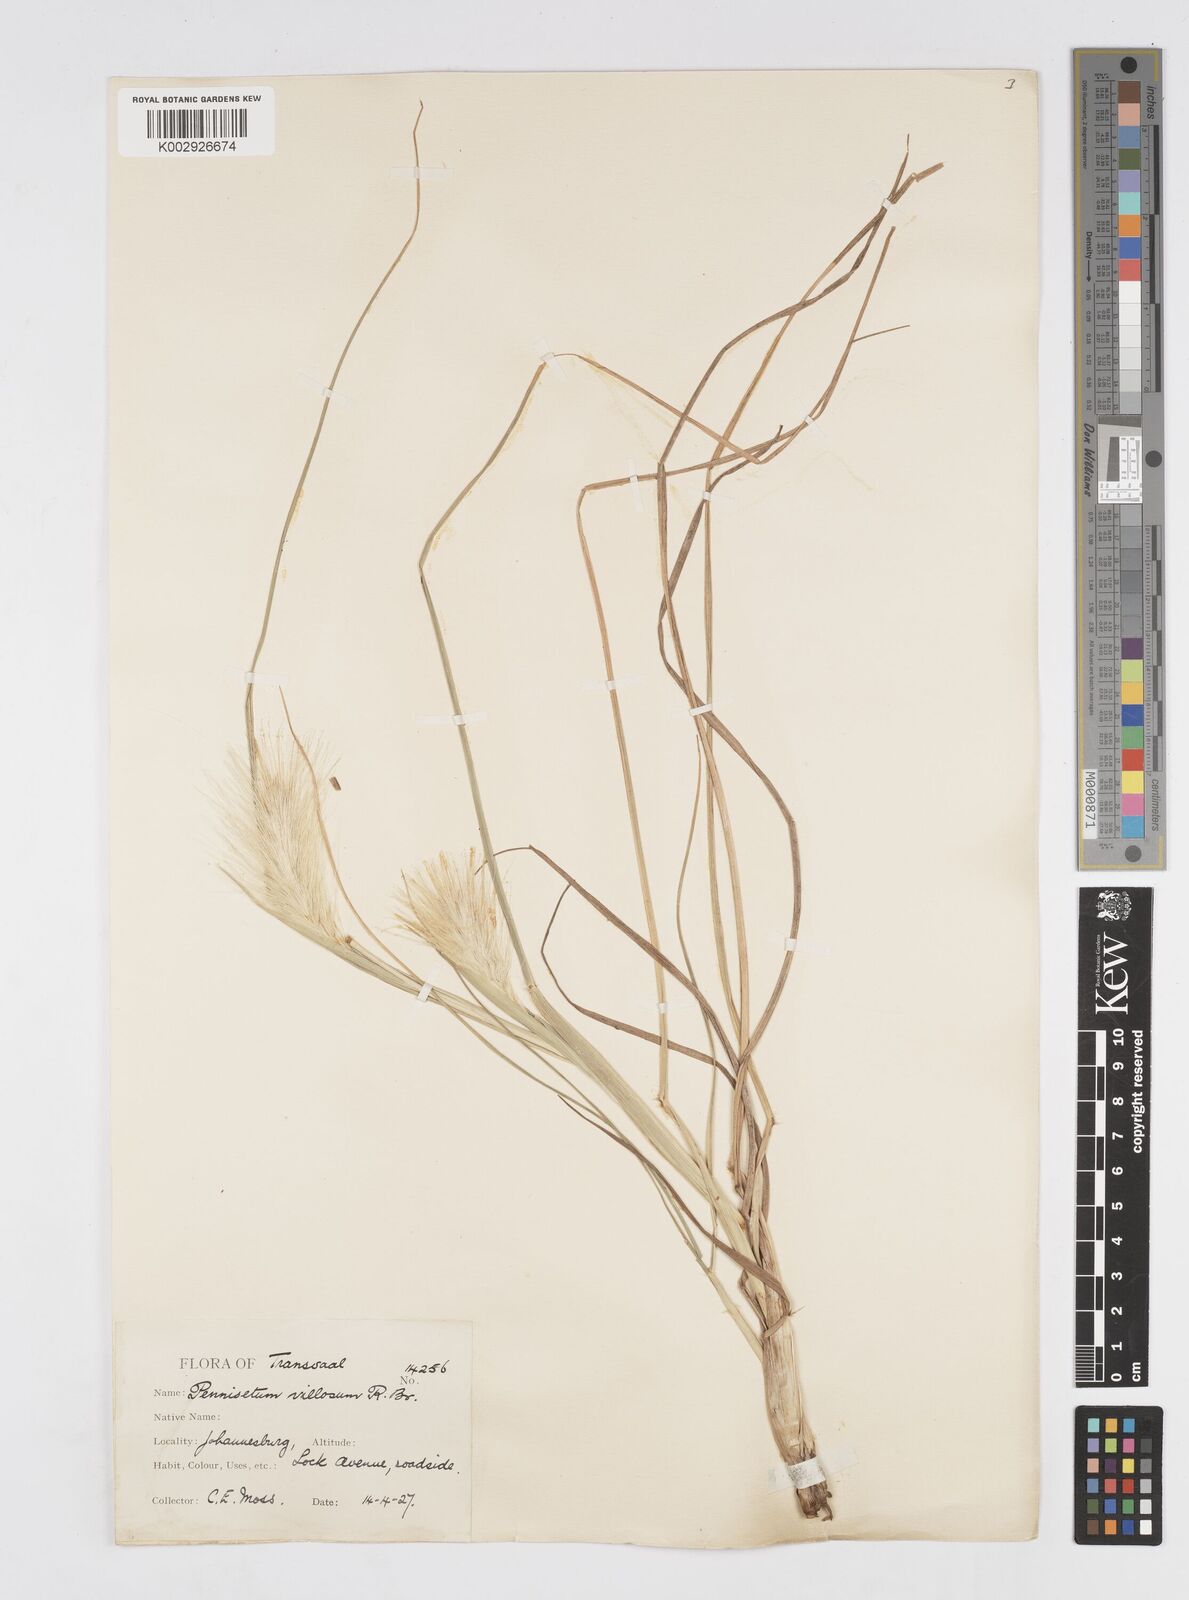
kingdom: Plantae
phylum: Tracheophyta
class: Liliopsida
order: Poales
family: Poaceae
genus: Cenchrus
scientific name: Cenchrus longisetus
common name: Feathertop
